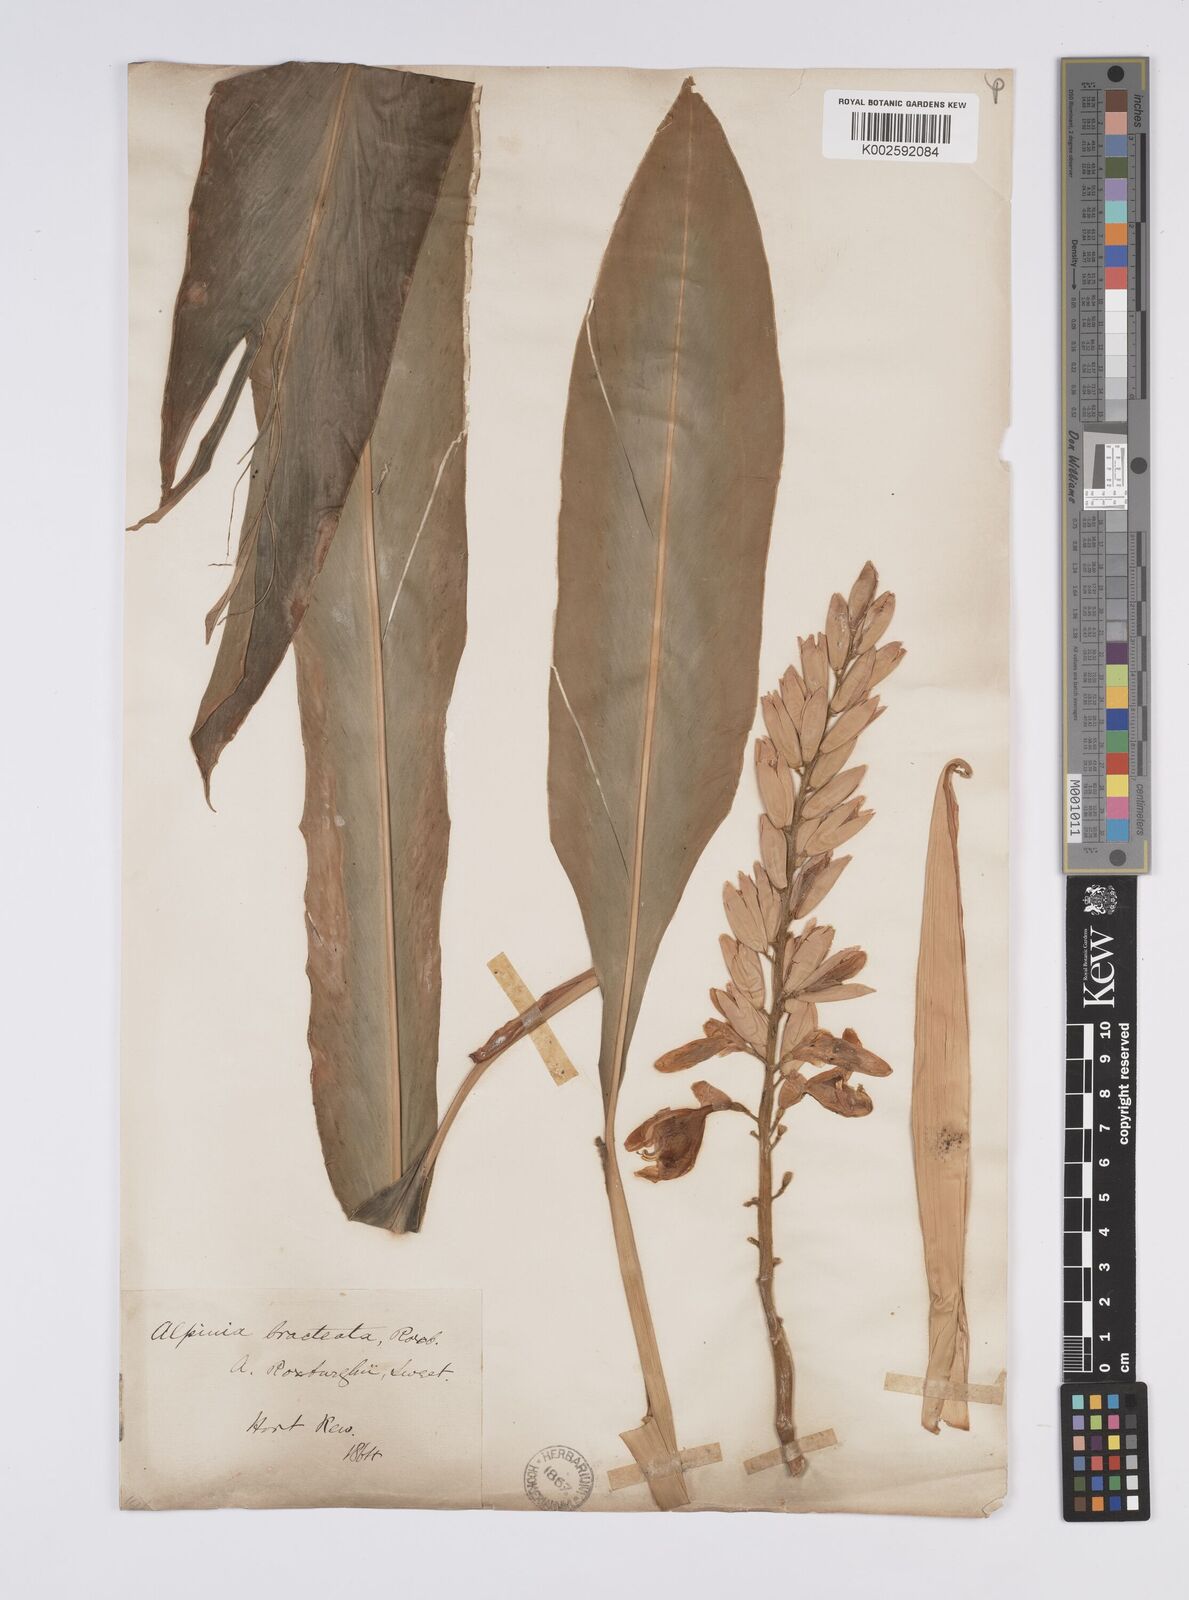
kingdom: Plantae
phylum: Tracheophyta
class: Liliopsida
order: Zingiberales
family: Zingiberaceae
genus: Alpinia
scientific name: Alpinia roxburghii
